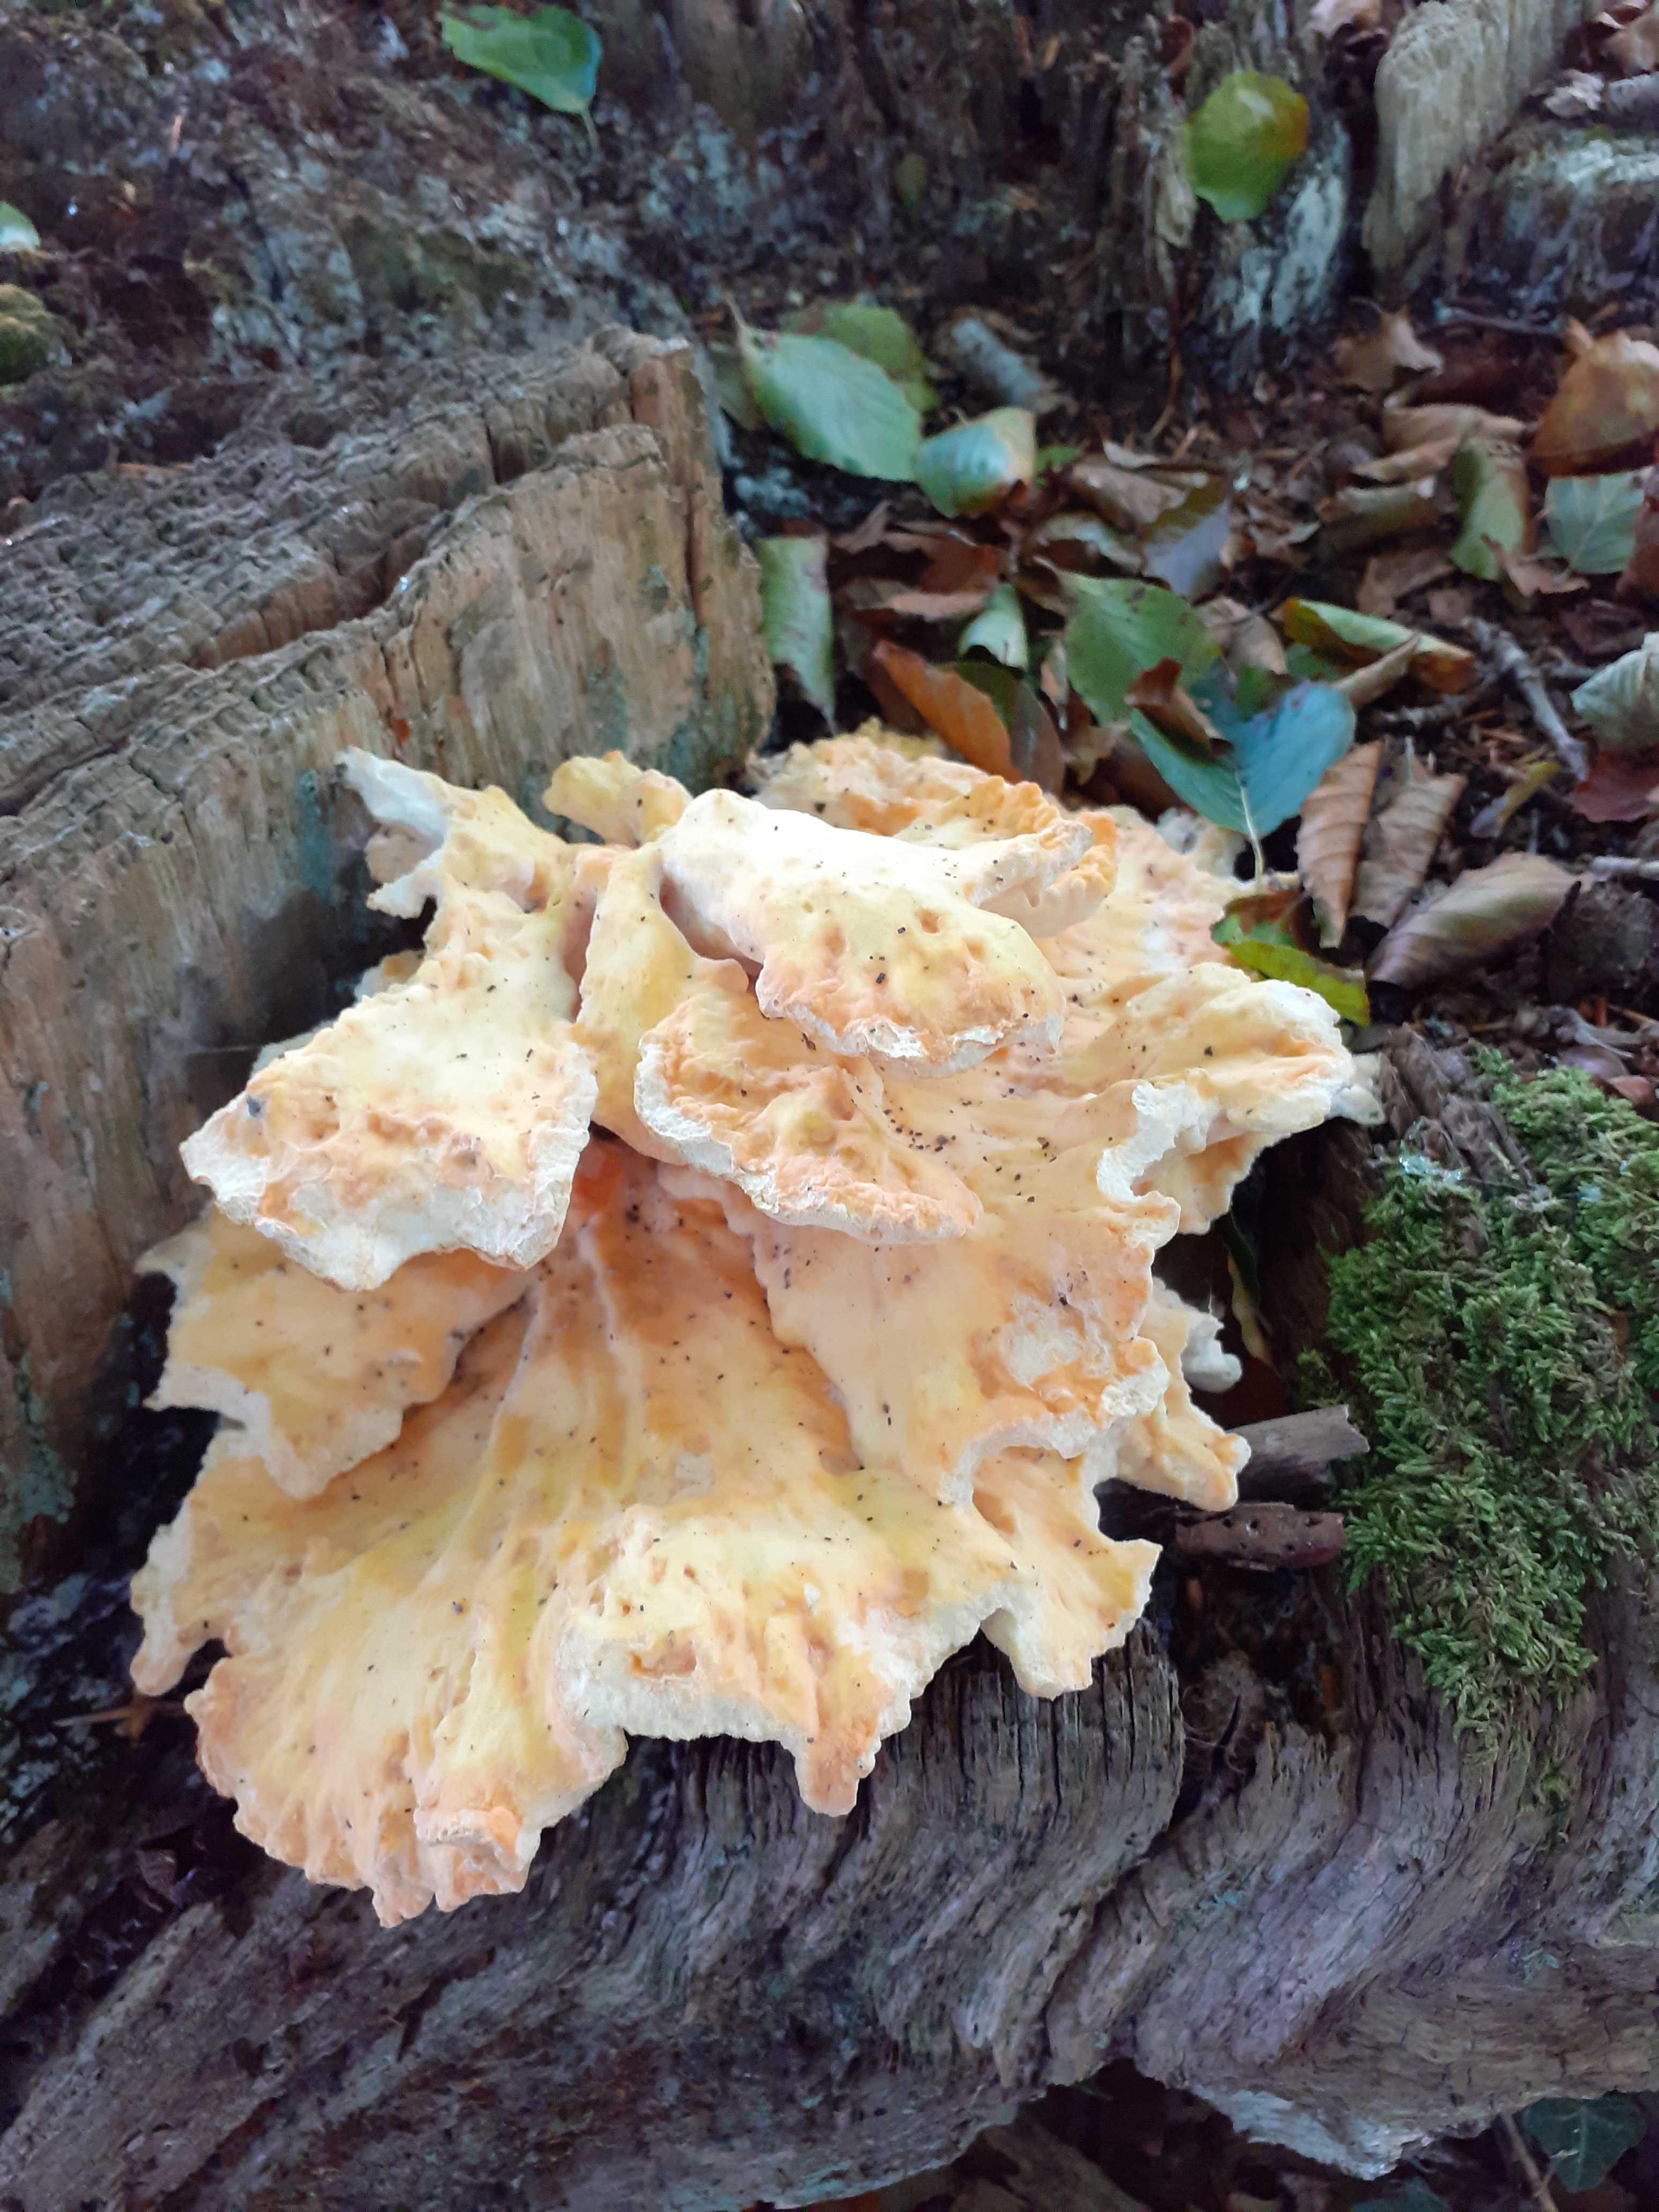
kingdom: Fungi
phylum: Basidiomycota
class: Agaricomycetes
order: Polyporales
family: Laetiporaceae
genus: Laetiporus
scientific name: Laetiporus sulphureus
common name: svovlporesvamp
